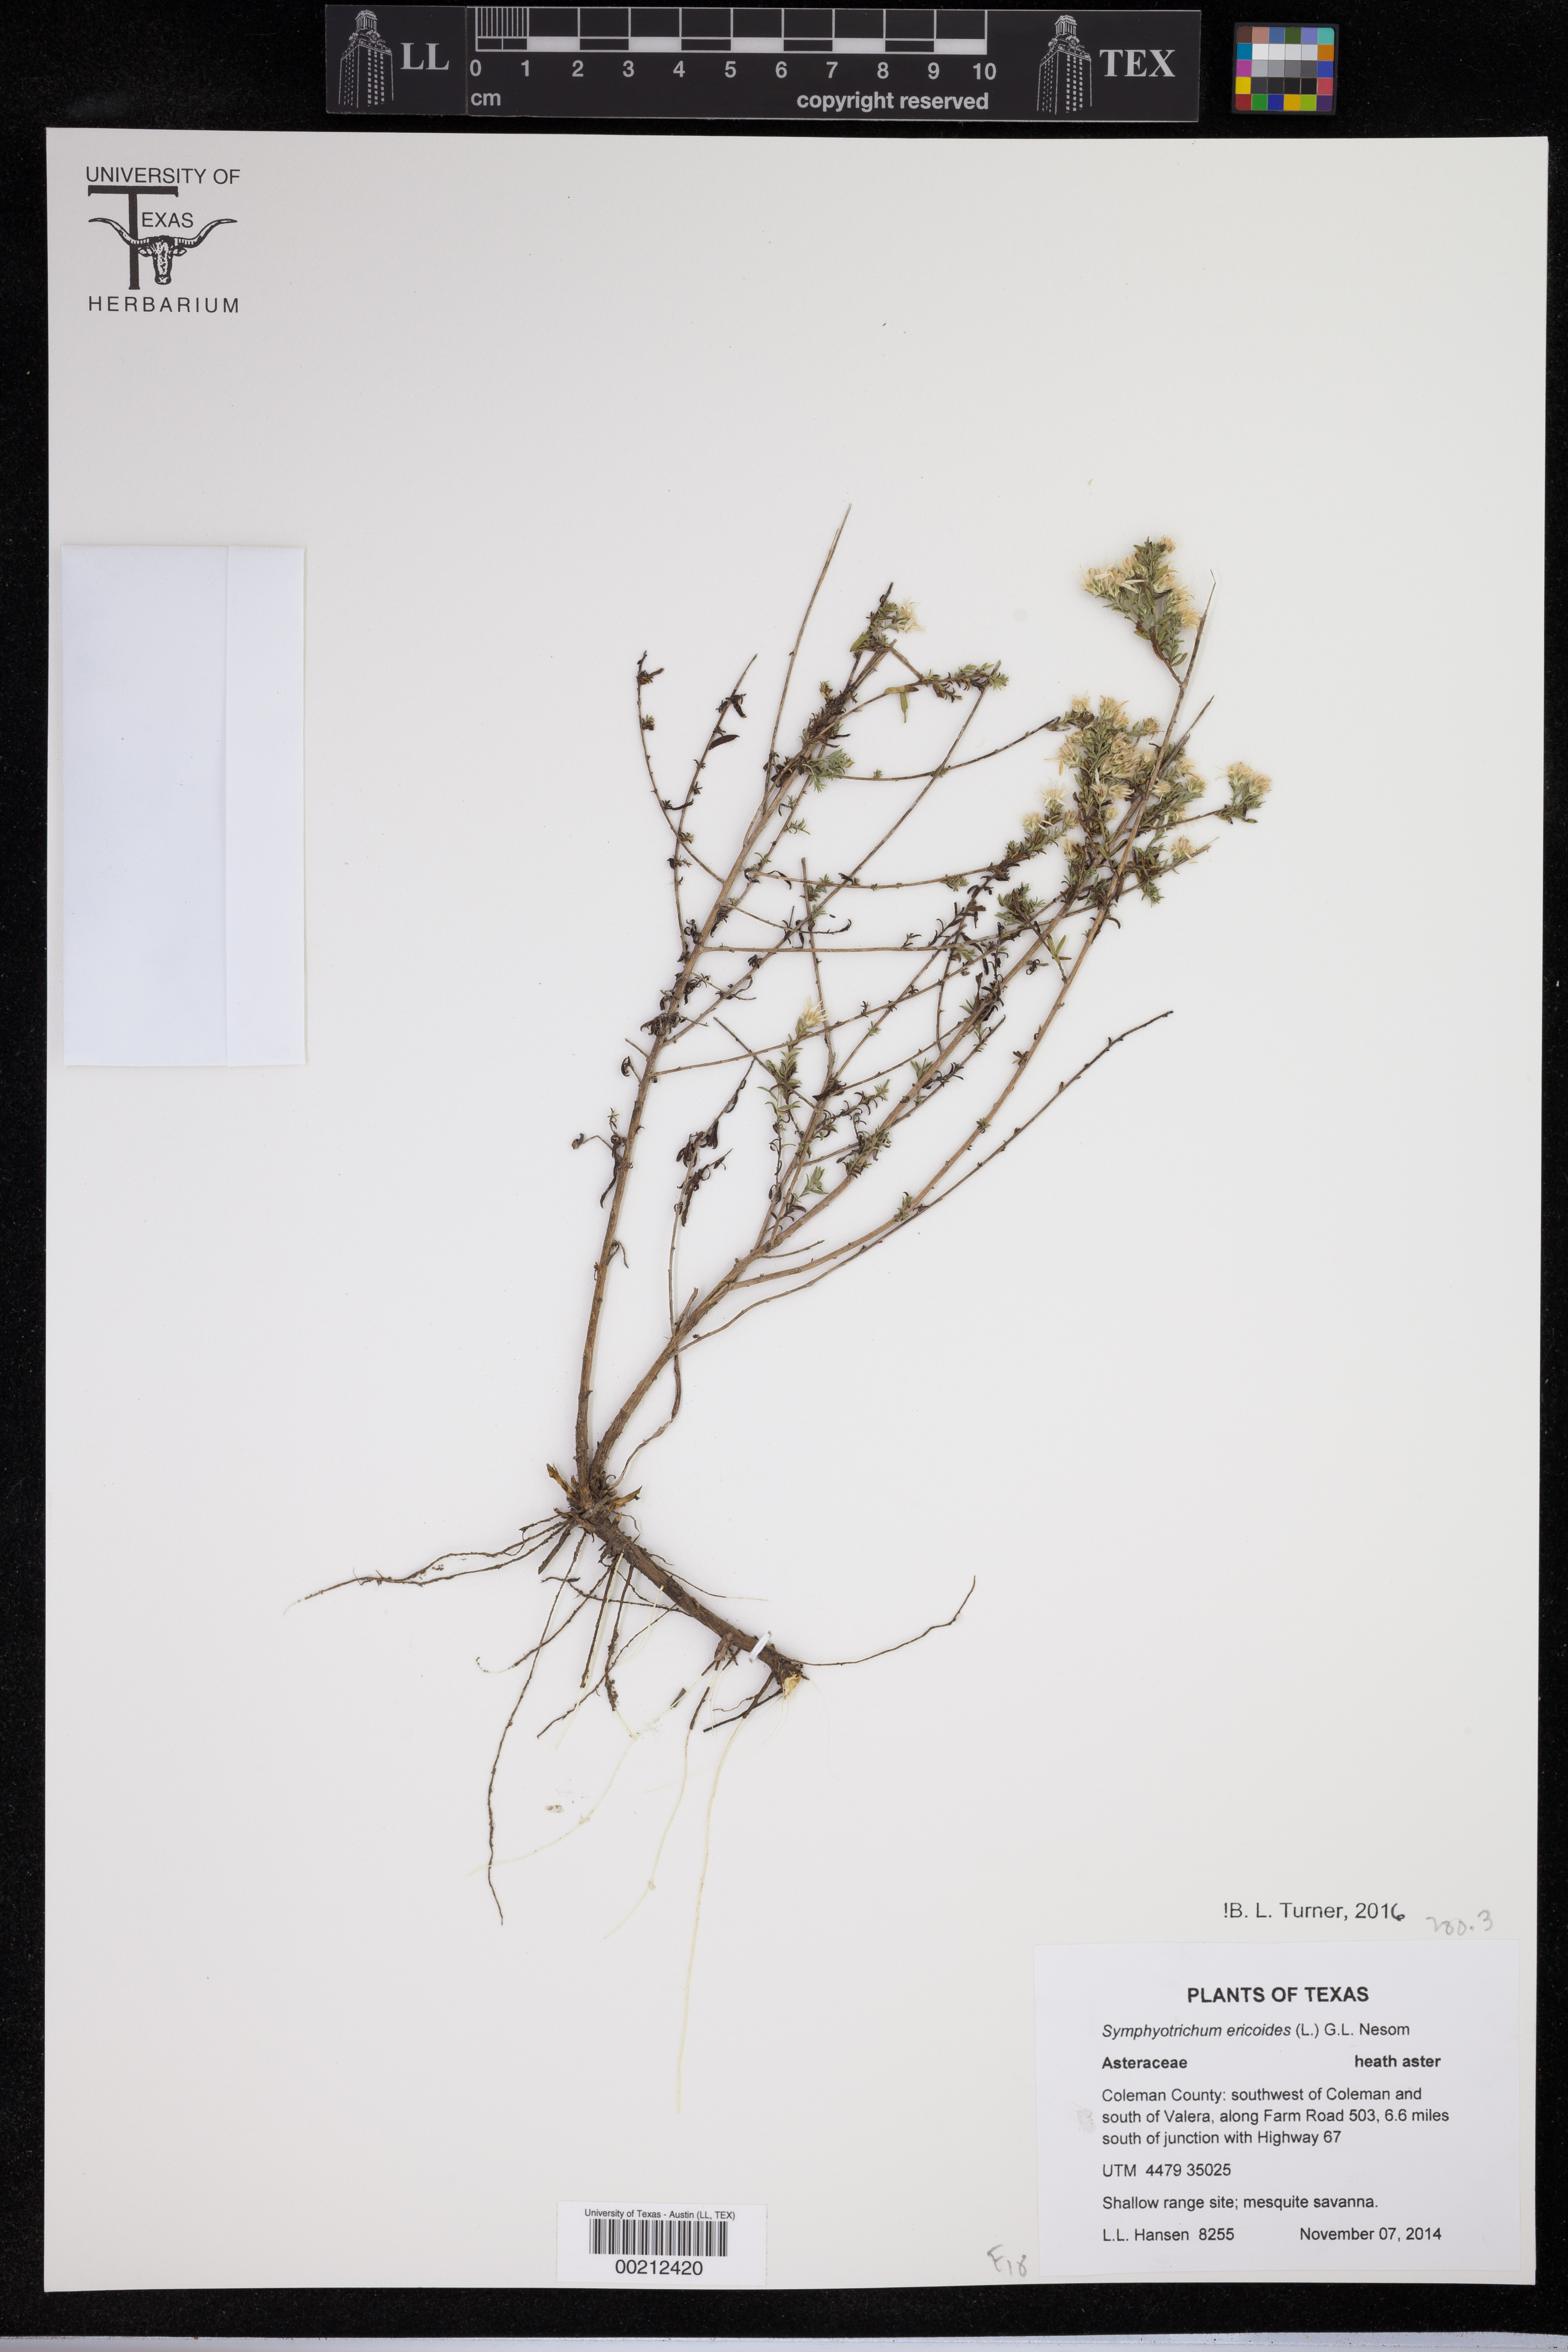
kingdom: Plantae
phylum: Tracheophyta
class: Magnoliopsida
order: Fabales
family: Polygalaceae
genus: Polygala
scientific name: Polygala nana
